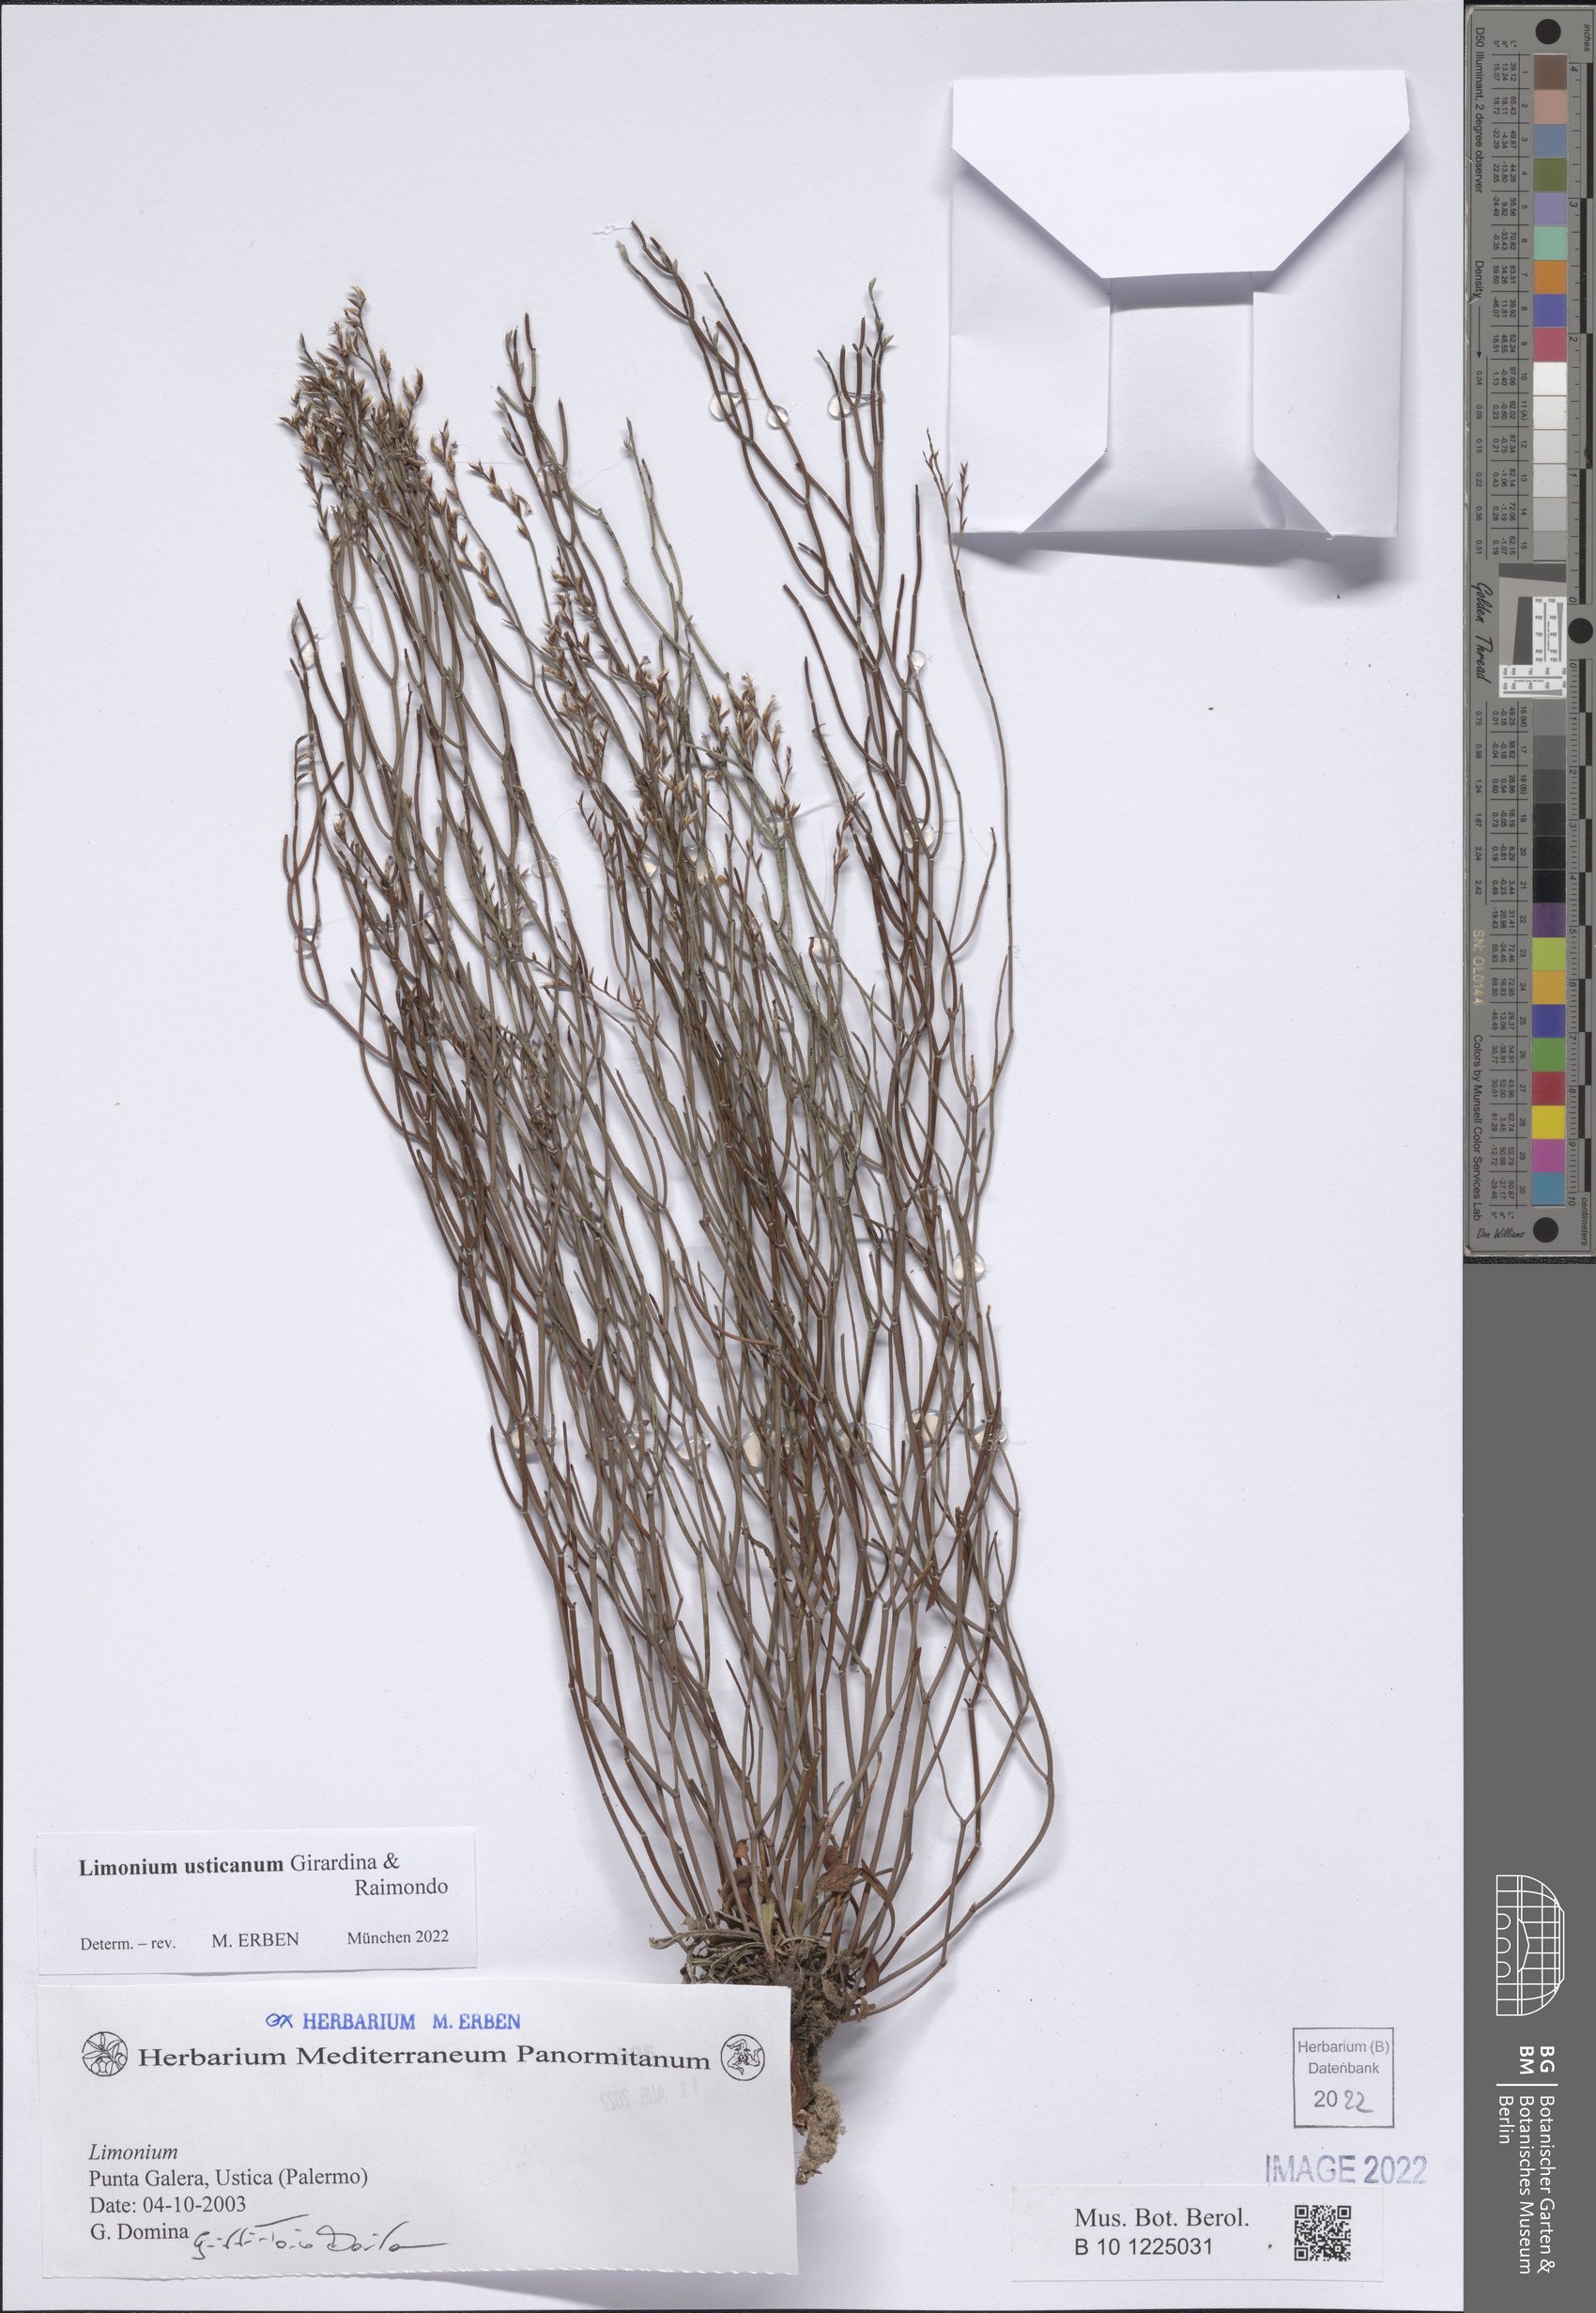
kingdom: Plantae
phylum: Tracheophyta
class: Magnoliopsida
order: Caryophyllales
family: Plumbaginaceae
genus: Limonium
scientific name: Limonium usticanum
